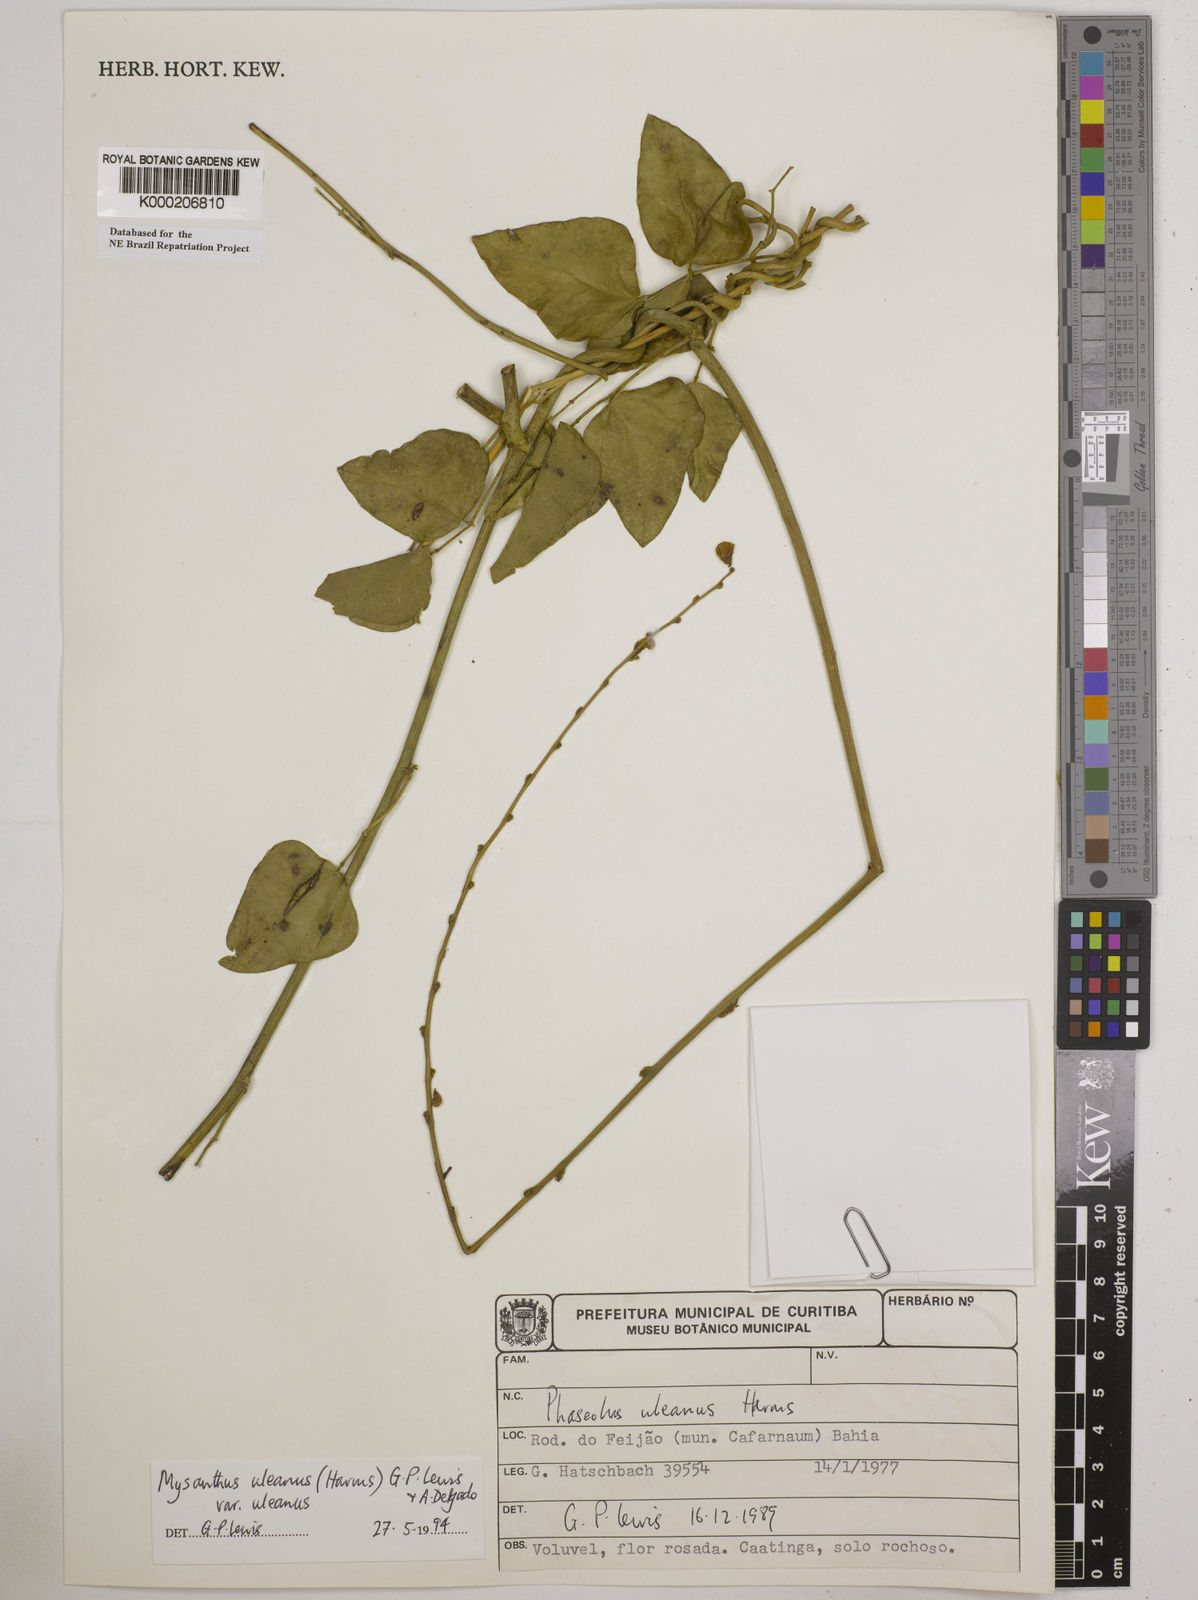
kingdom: Plantae
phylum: Tracheophyta
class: Magnoliopsida
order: Fabales
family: Fabaceae
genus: Mysanthus
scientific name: Mysanthus uleanus
